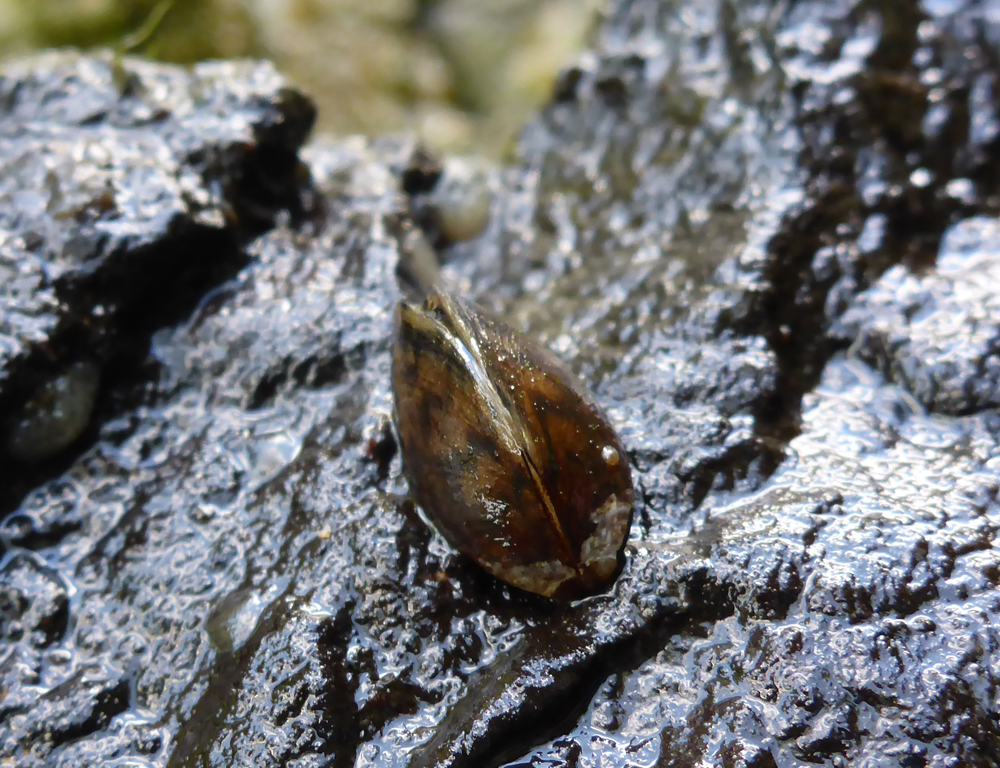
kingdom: Animalia
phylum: Mollusca
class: Bivalvia
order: Myida
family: Dreissenidae
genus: Dreissena
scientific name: Dreissena polymorpha
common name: Zebra mussel
